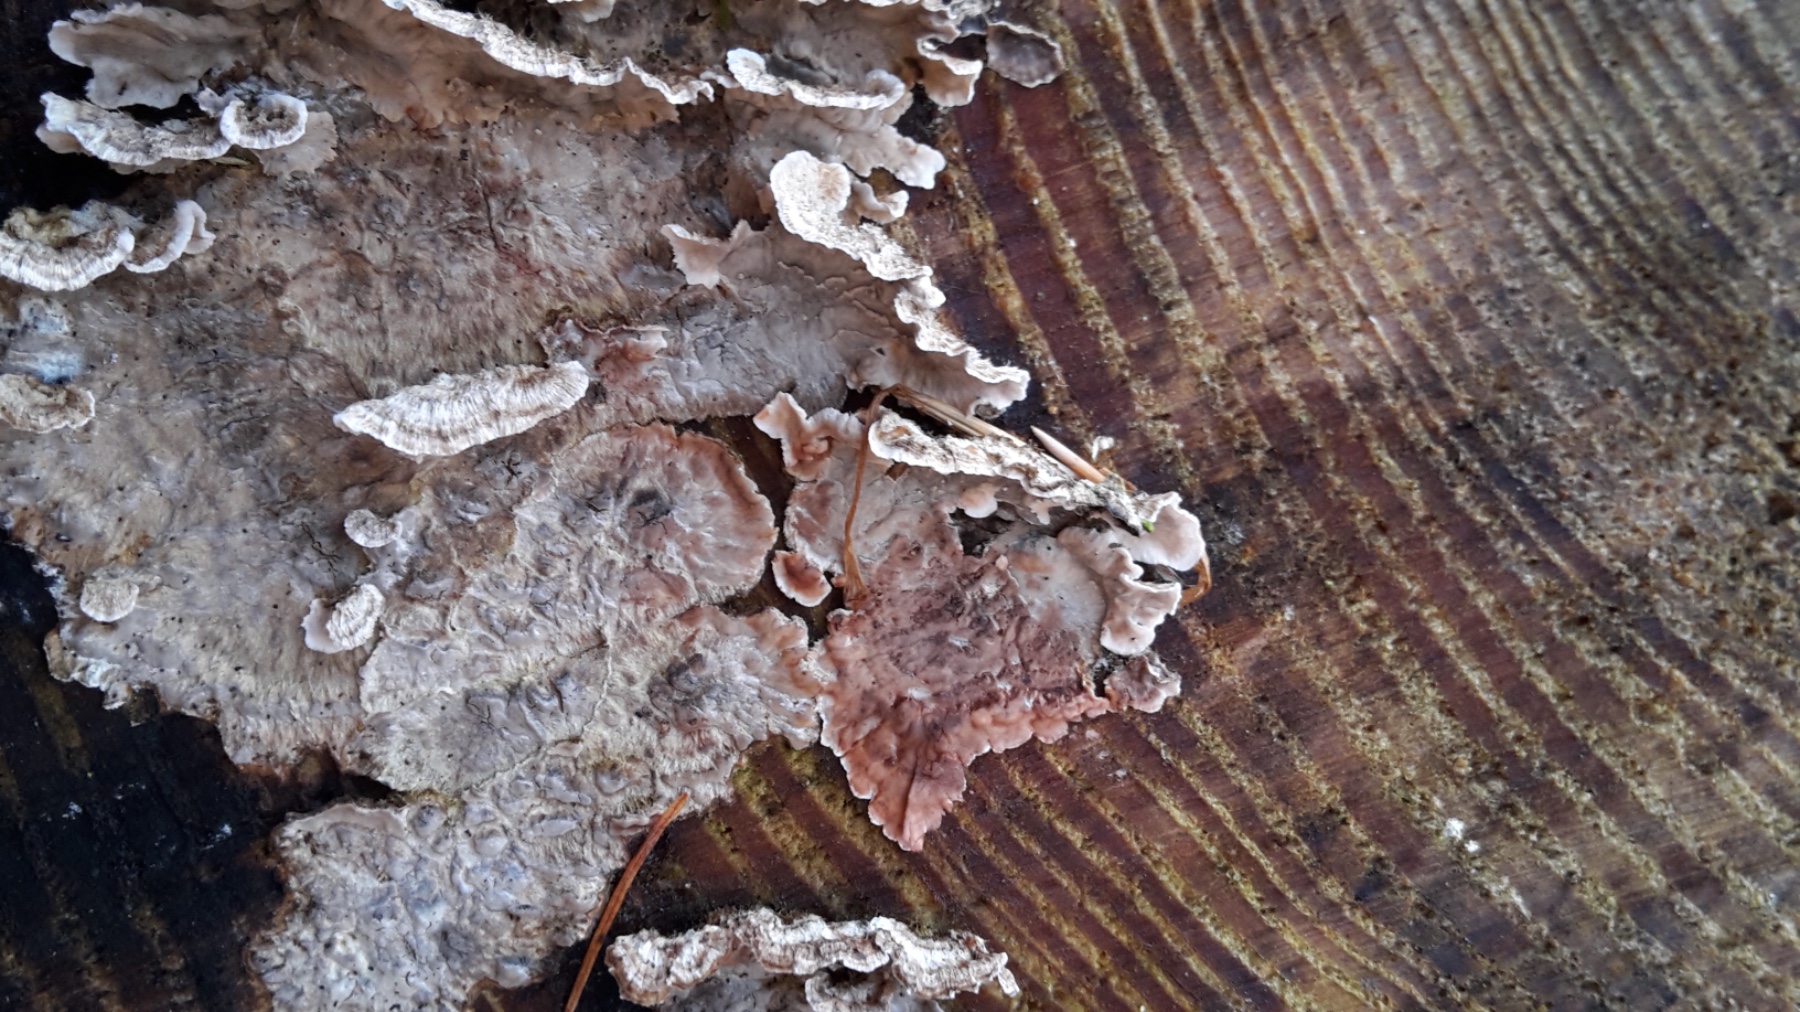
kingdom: Fungi
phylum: Basidiomycota
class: Agaricomycetes
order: Russulales
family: Stereaceae
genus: Stereum
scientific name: Stereum sanguinolentum
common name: blødende lædersvamp
